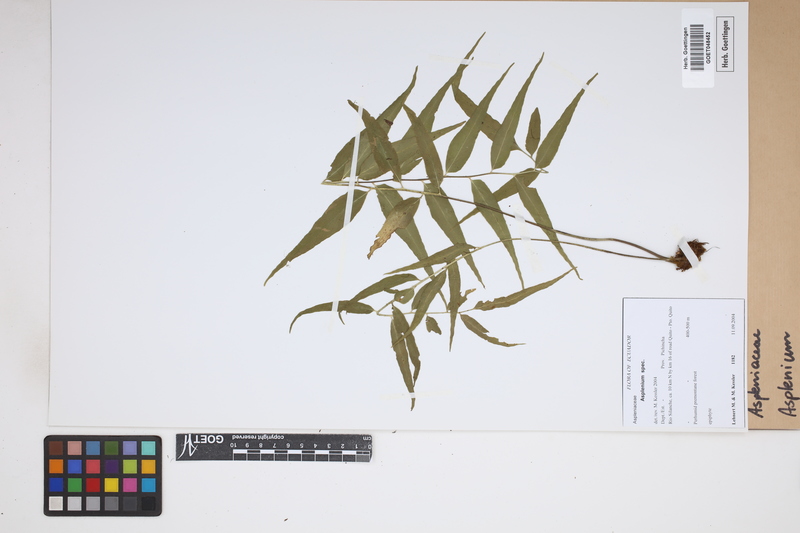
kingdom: Plantae
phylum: Tracheophyta
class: Polypodiopsida
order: Polypodiales
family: Aspleniaceae
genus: Asplenium
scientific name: Asplenium
